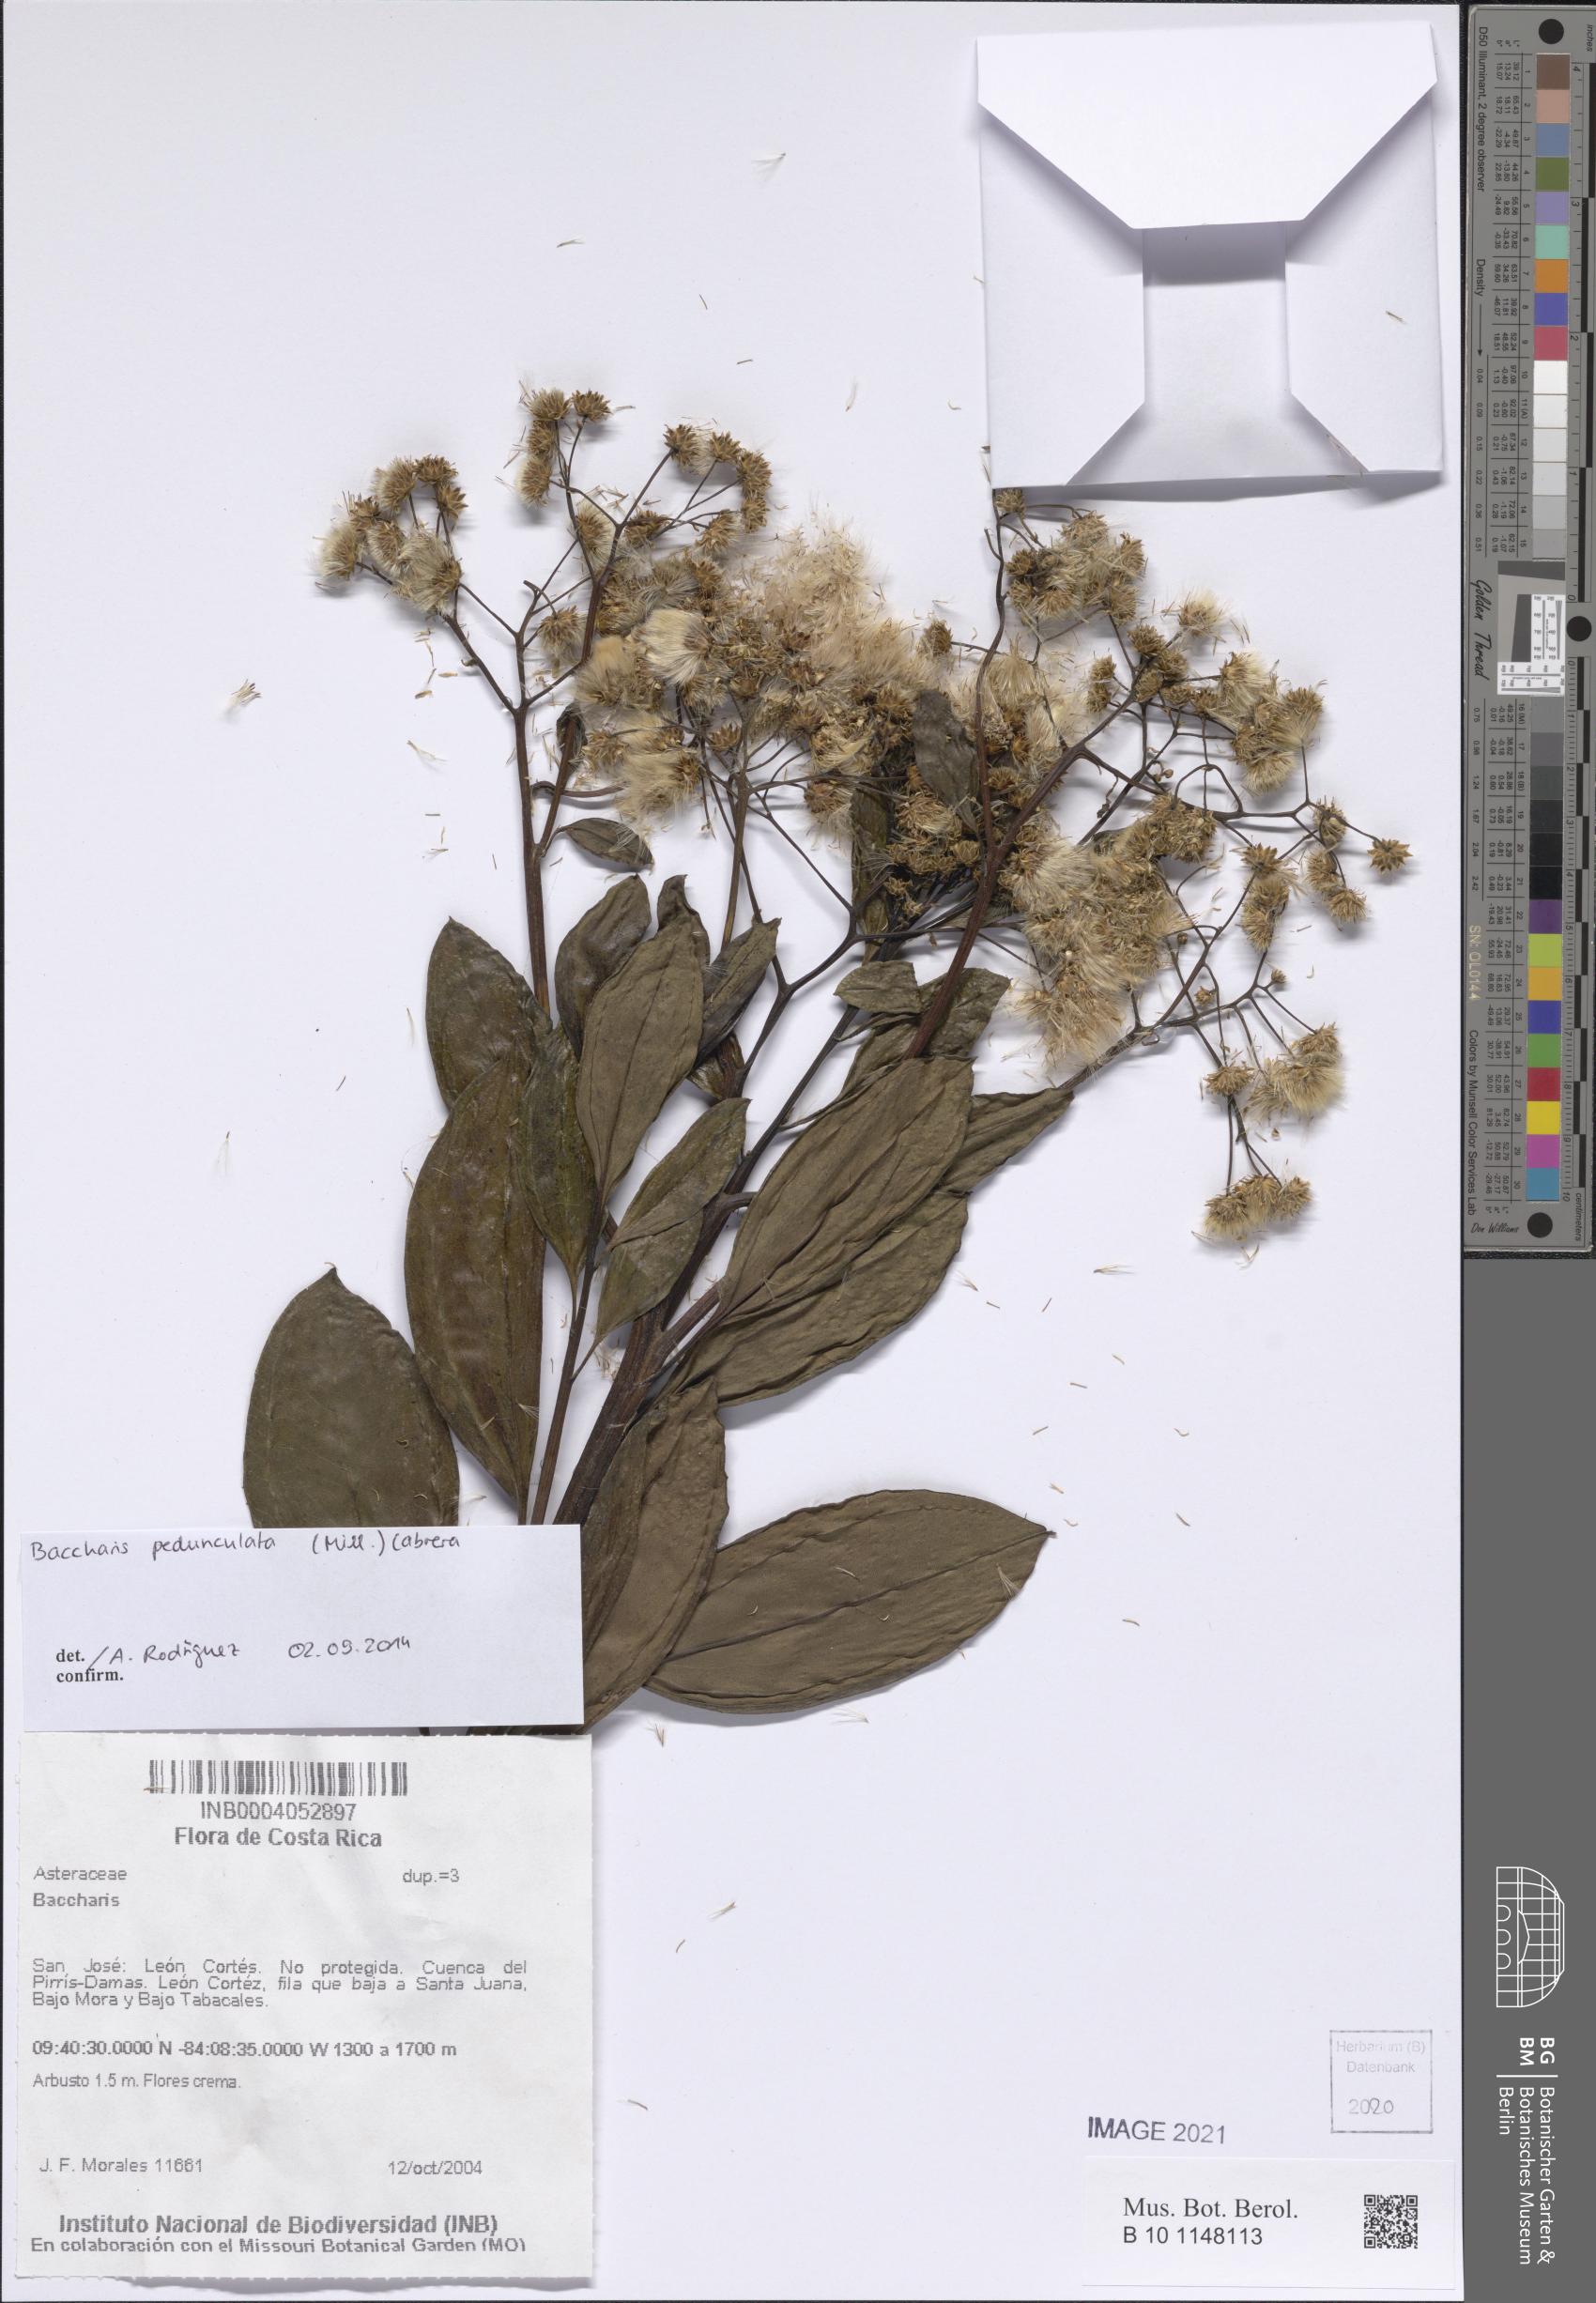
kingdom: Plantae
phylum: Tracheophyta
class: Magnoliopsida
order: Asterales
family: Asteraceae
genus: Baccharis
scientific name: Baccharis pedunculata
